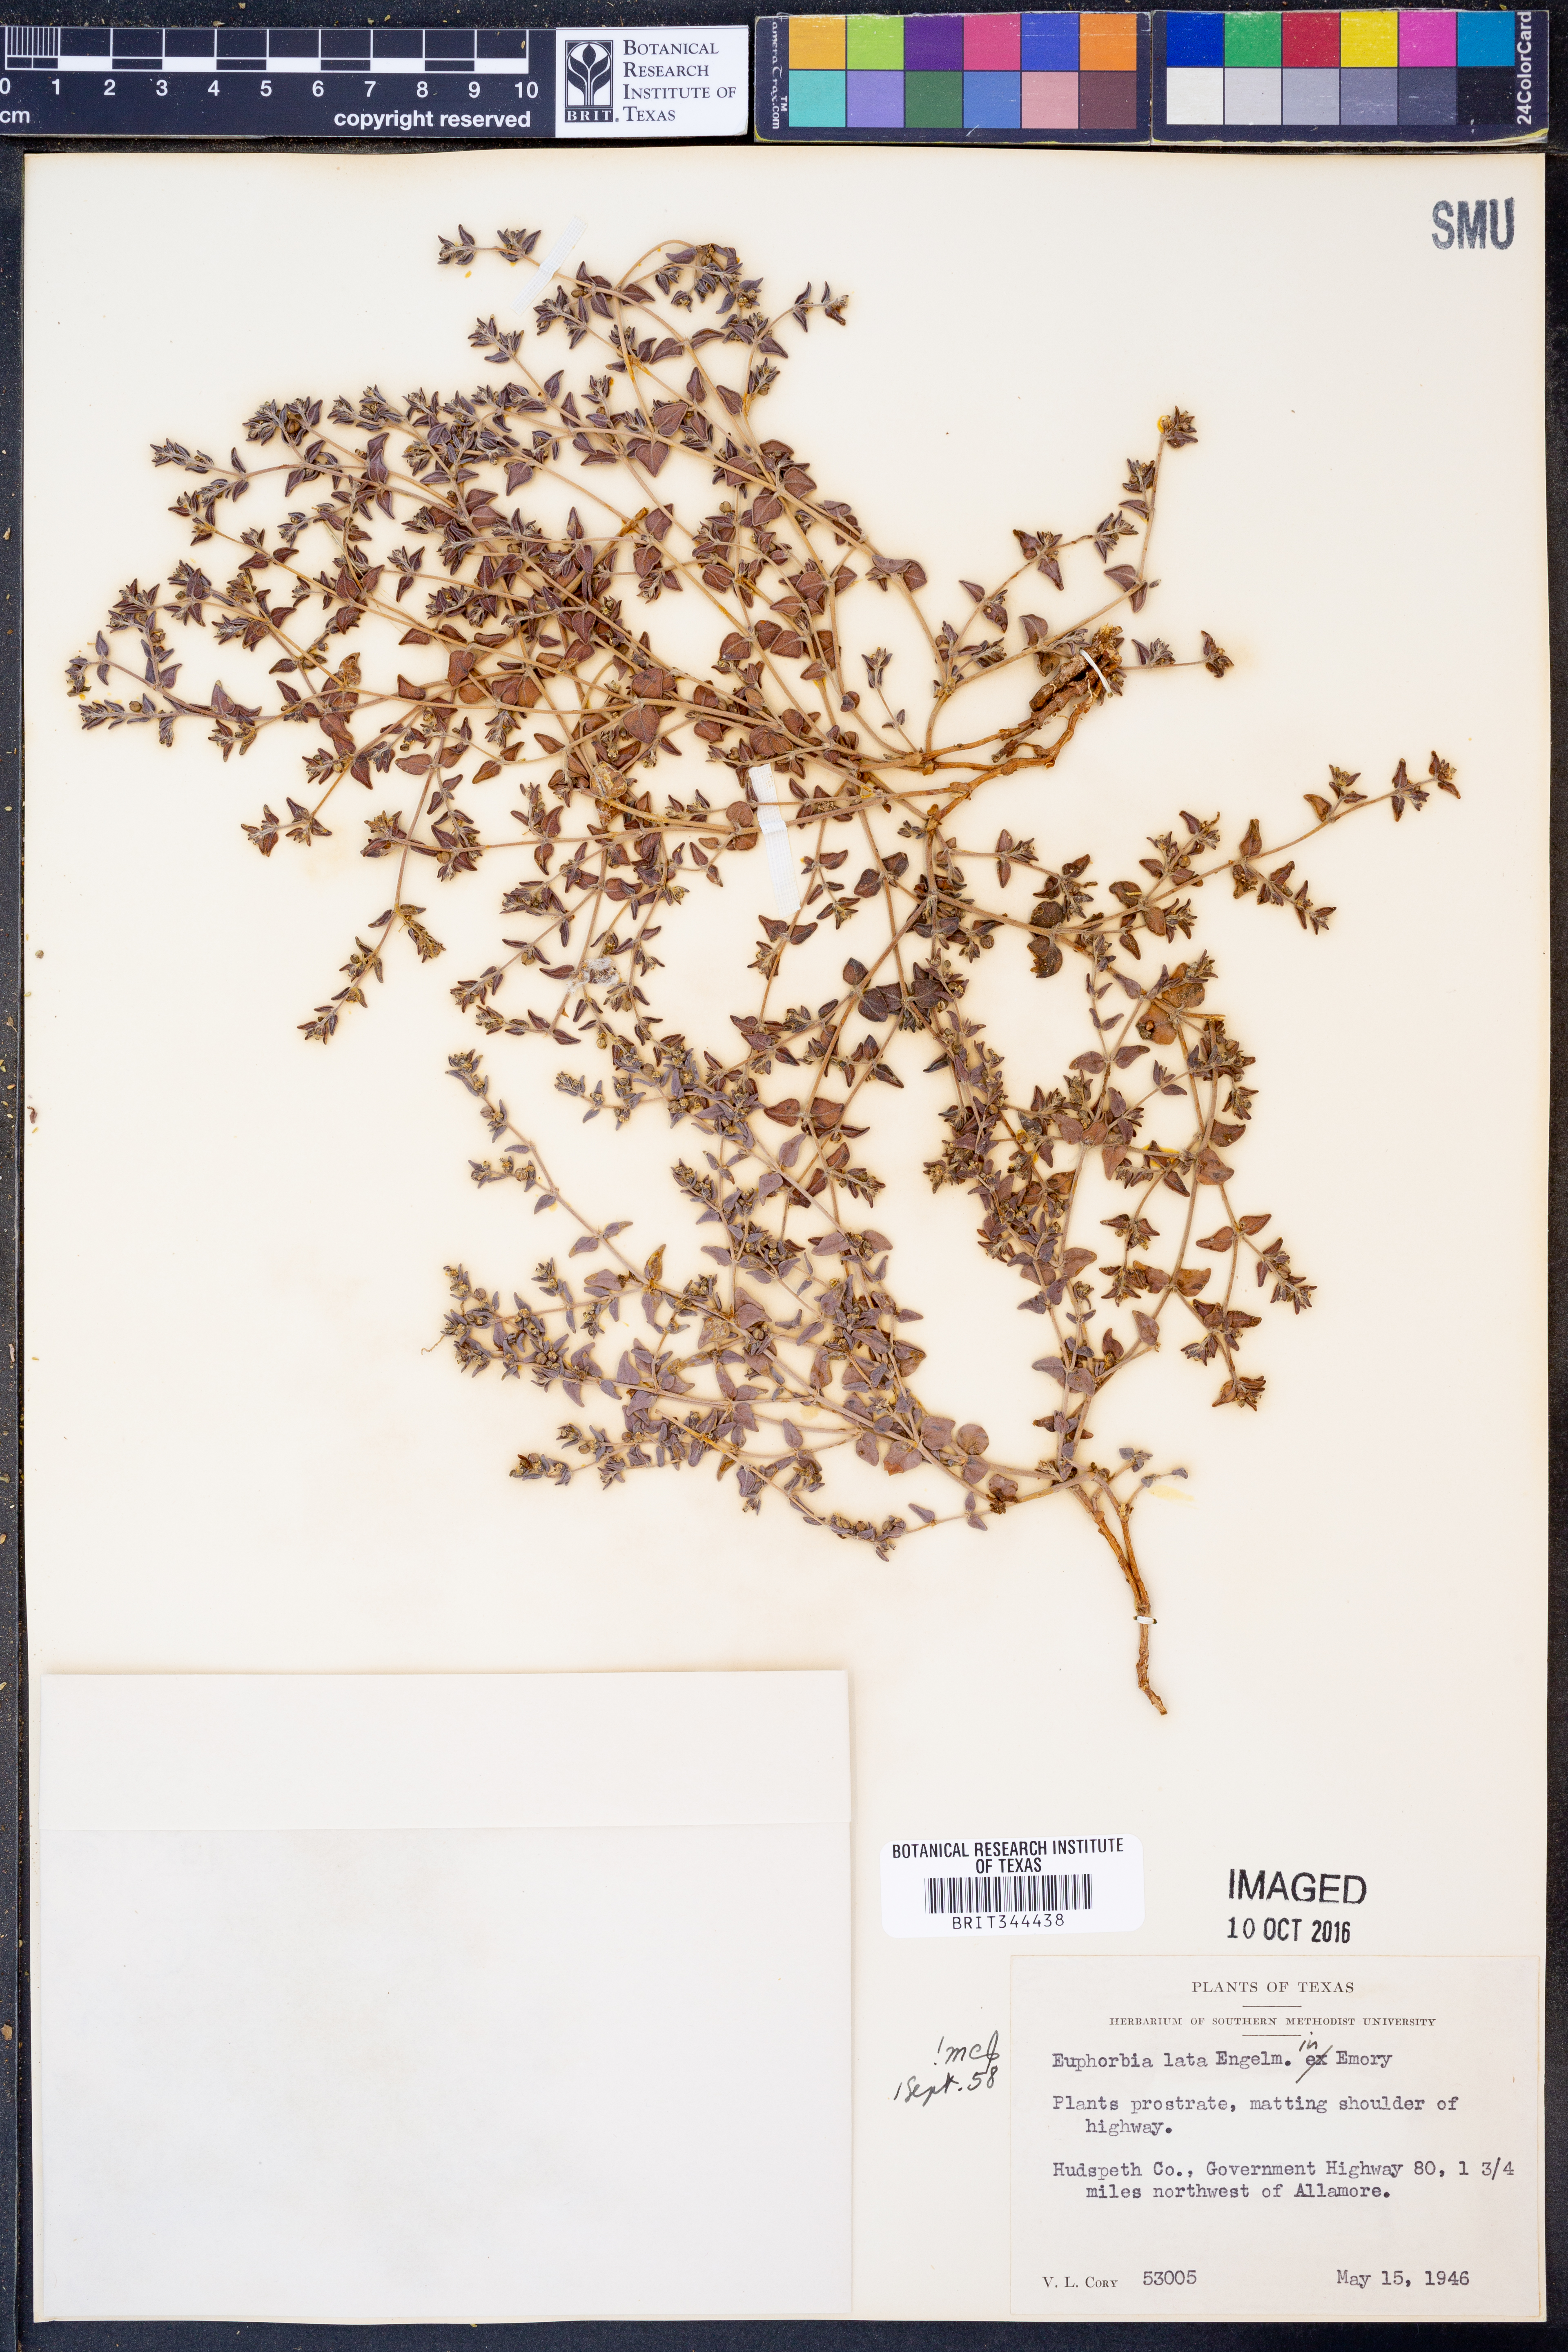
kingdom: Plantae
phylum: Tracheophyta
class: Magnoliopsida
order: Malpighiales
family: Euphorbiaceae
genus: Euphorbia
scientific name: Euphorbia lata
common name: Hoary euphorbia
